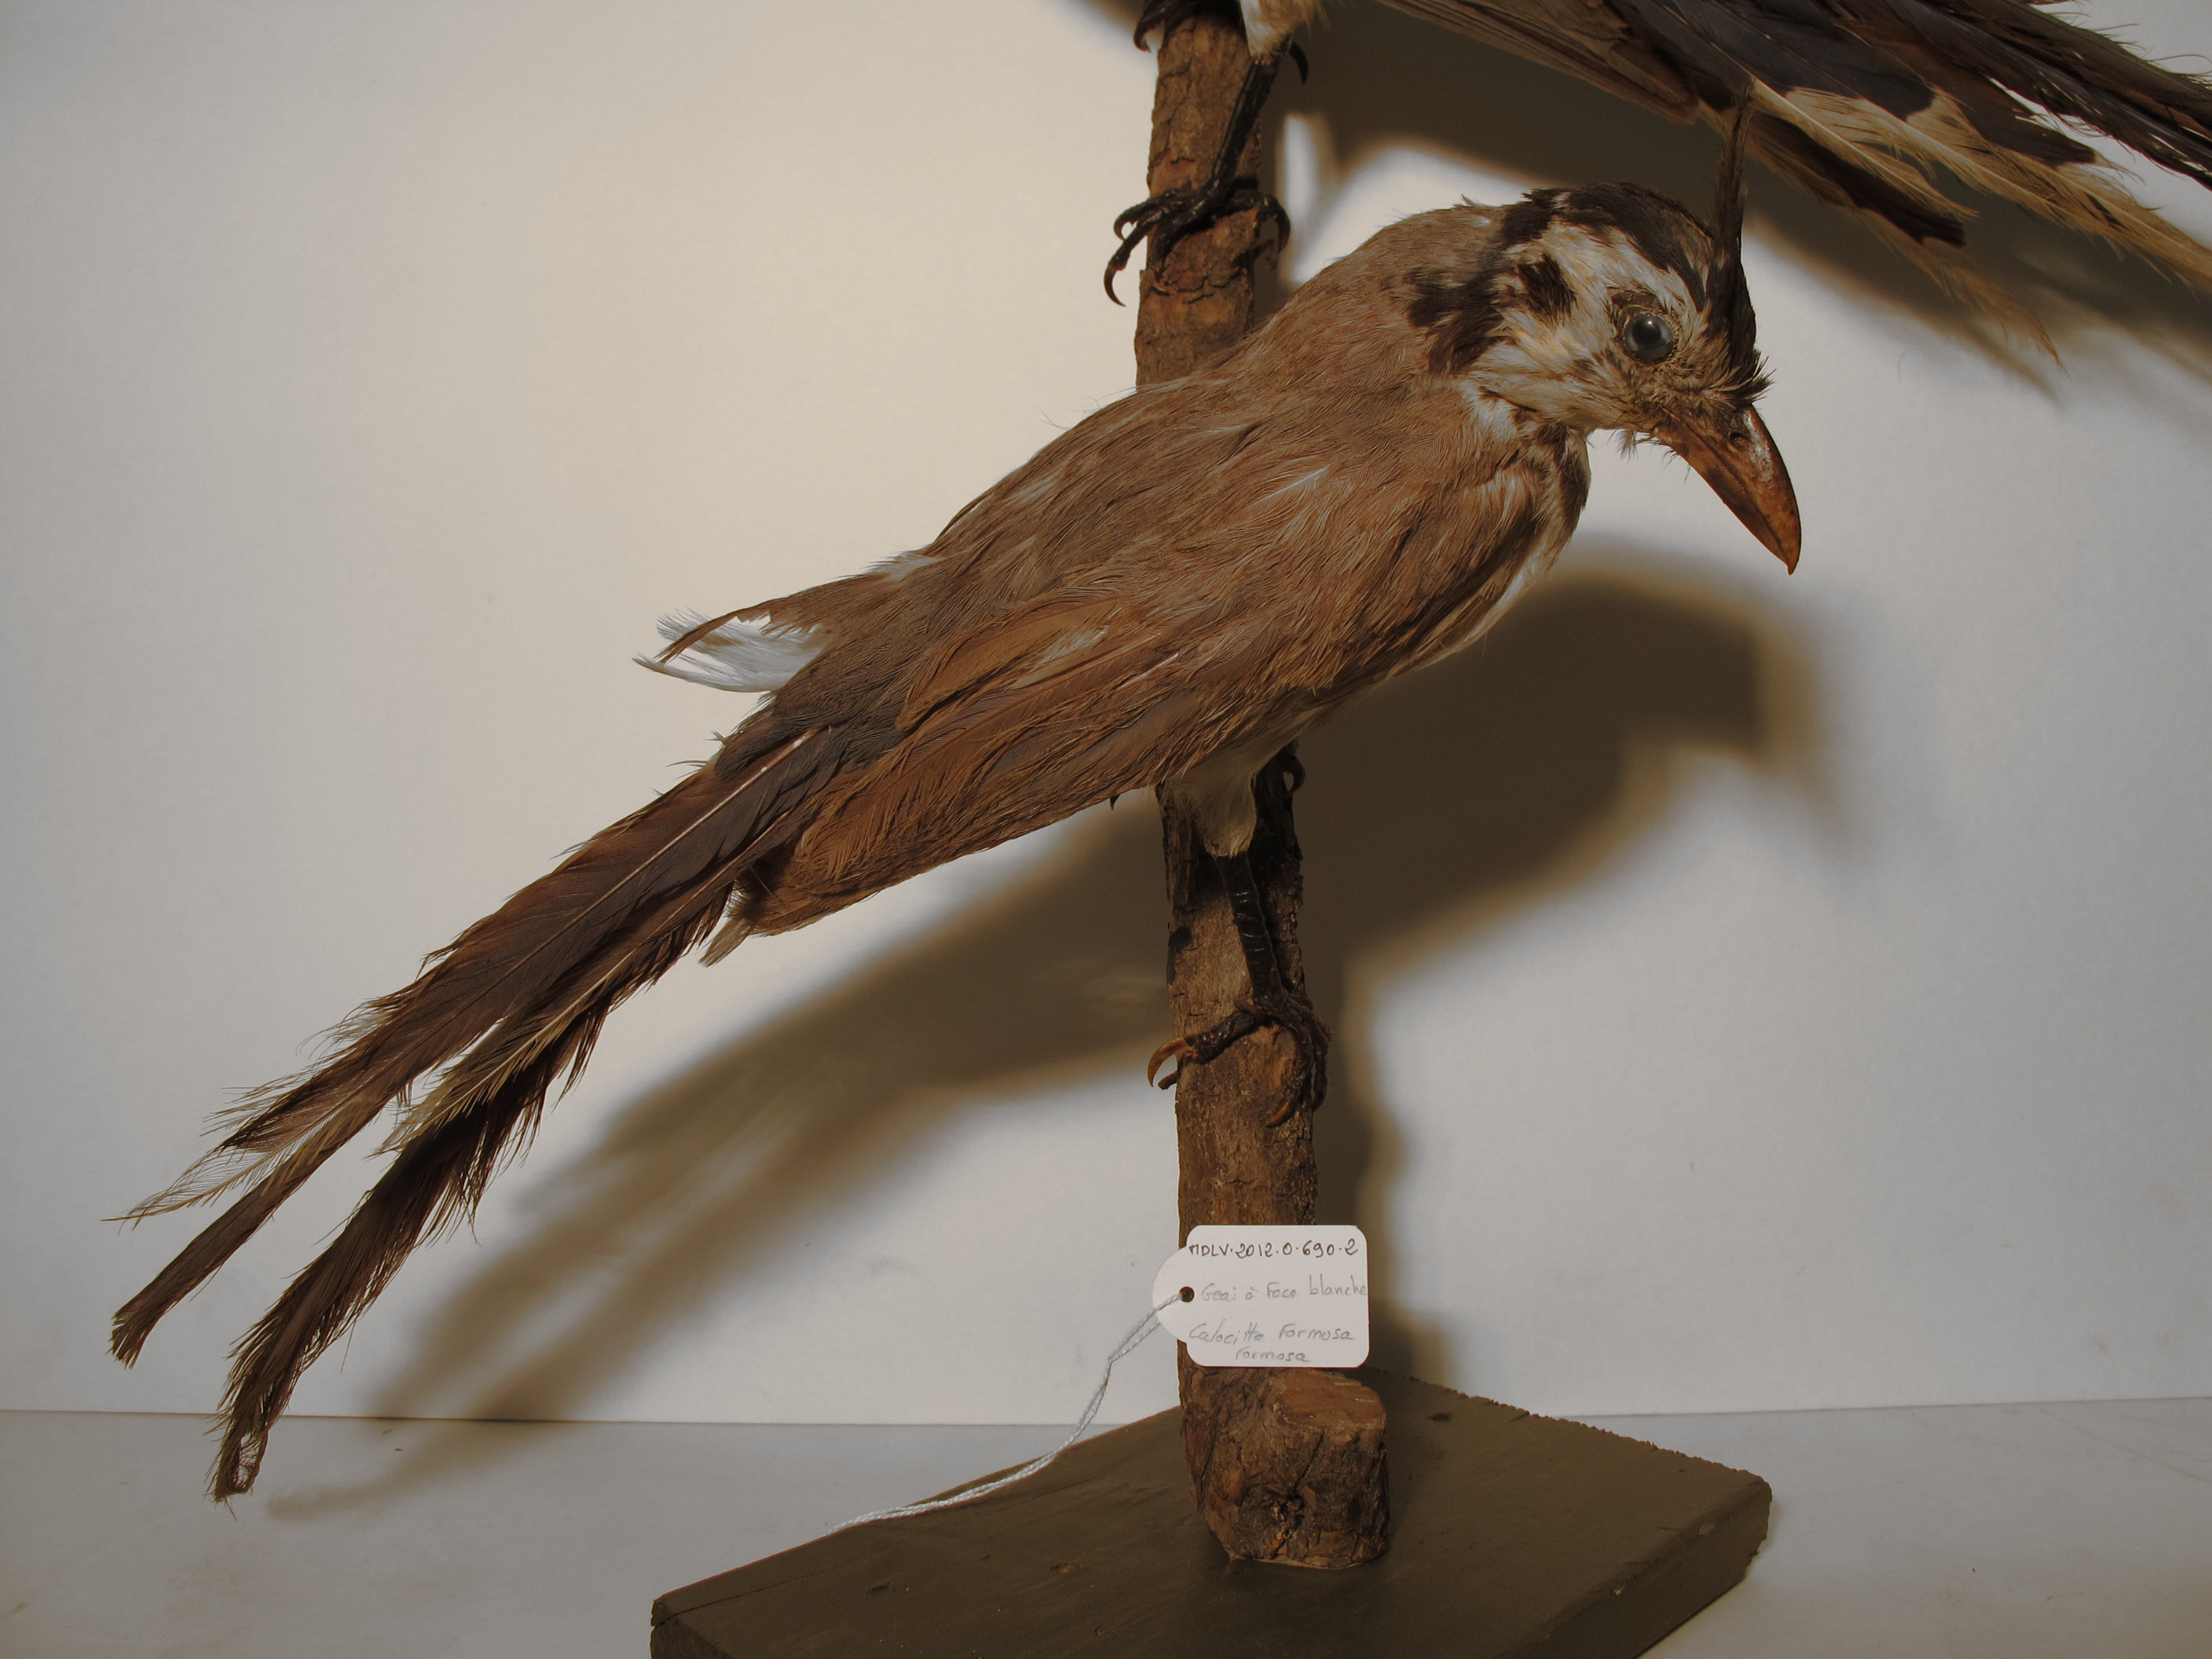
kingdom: Animalia
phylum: Chordata
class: Aves
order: Passeriformes
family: Corvidae
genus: Calocitta
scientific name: Calocitta formosa
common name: White-throated Magpie-jay
